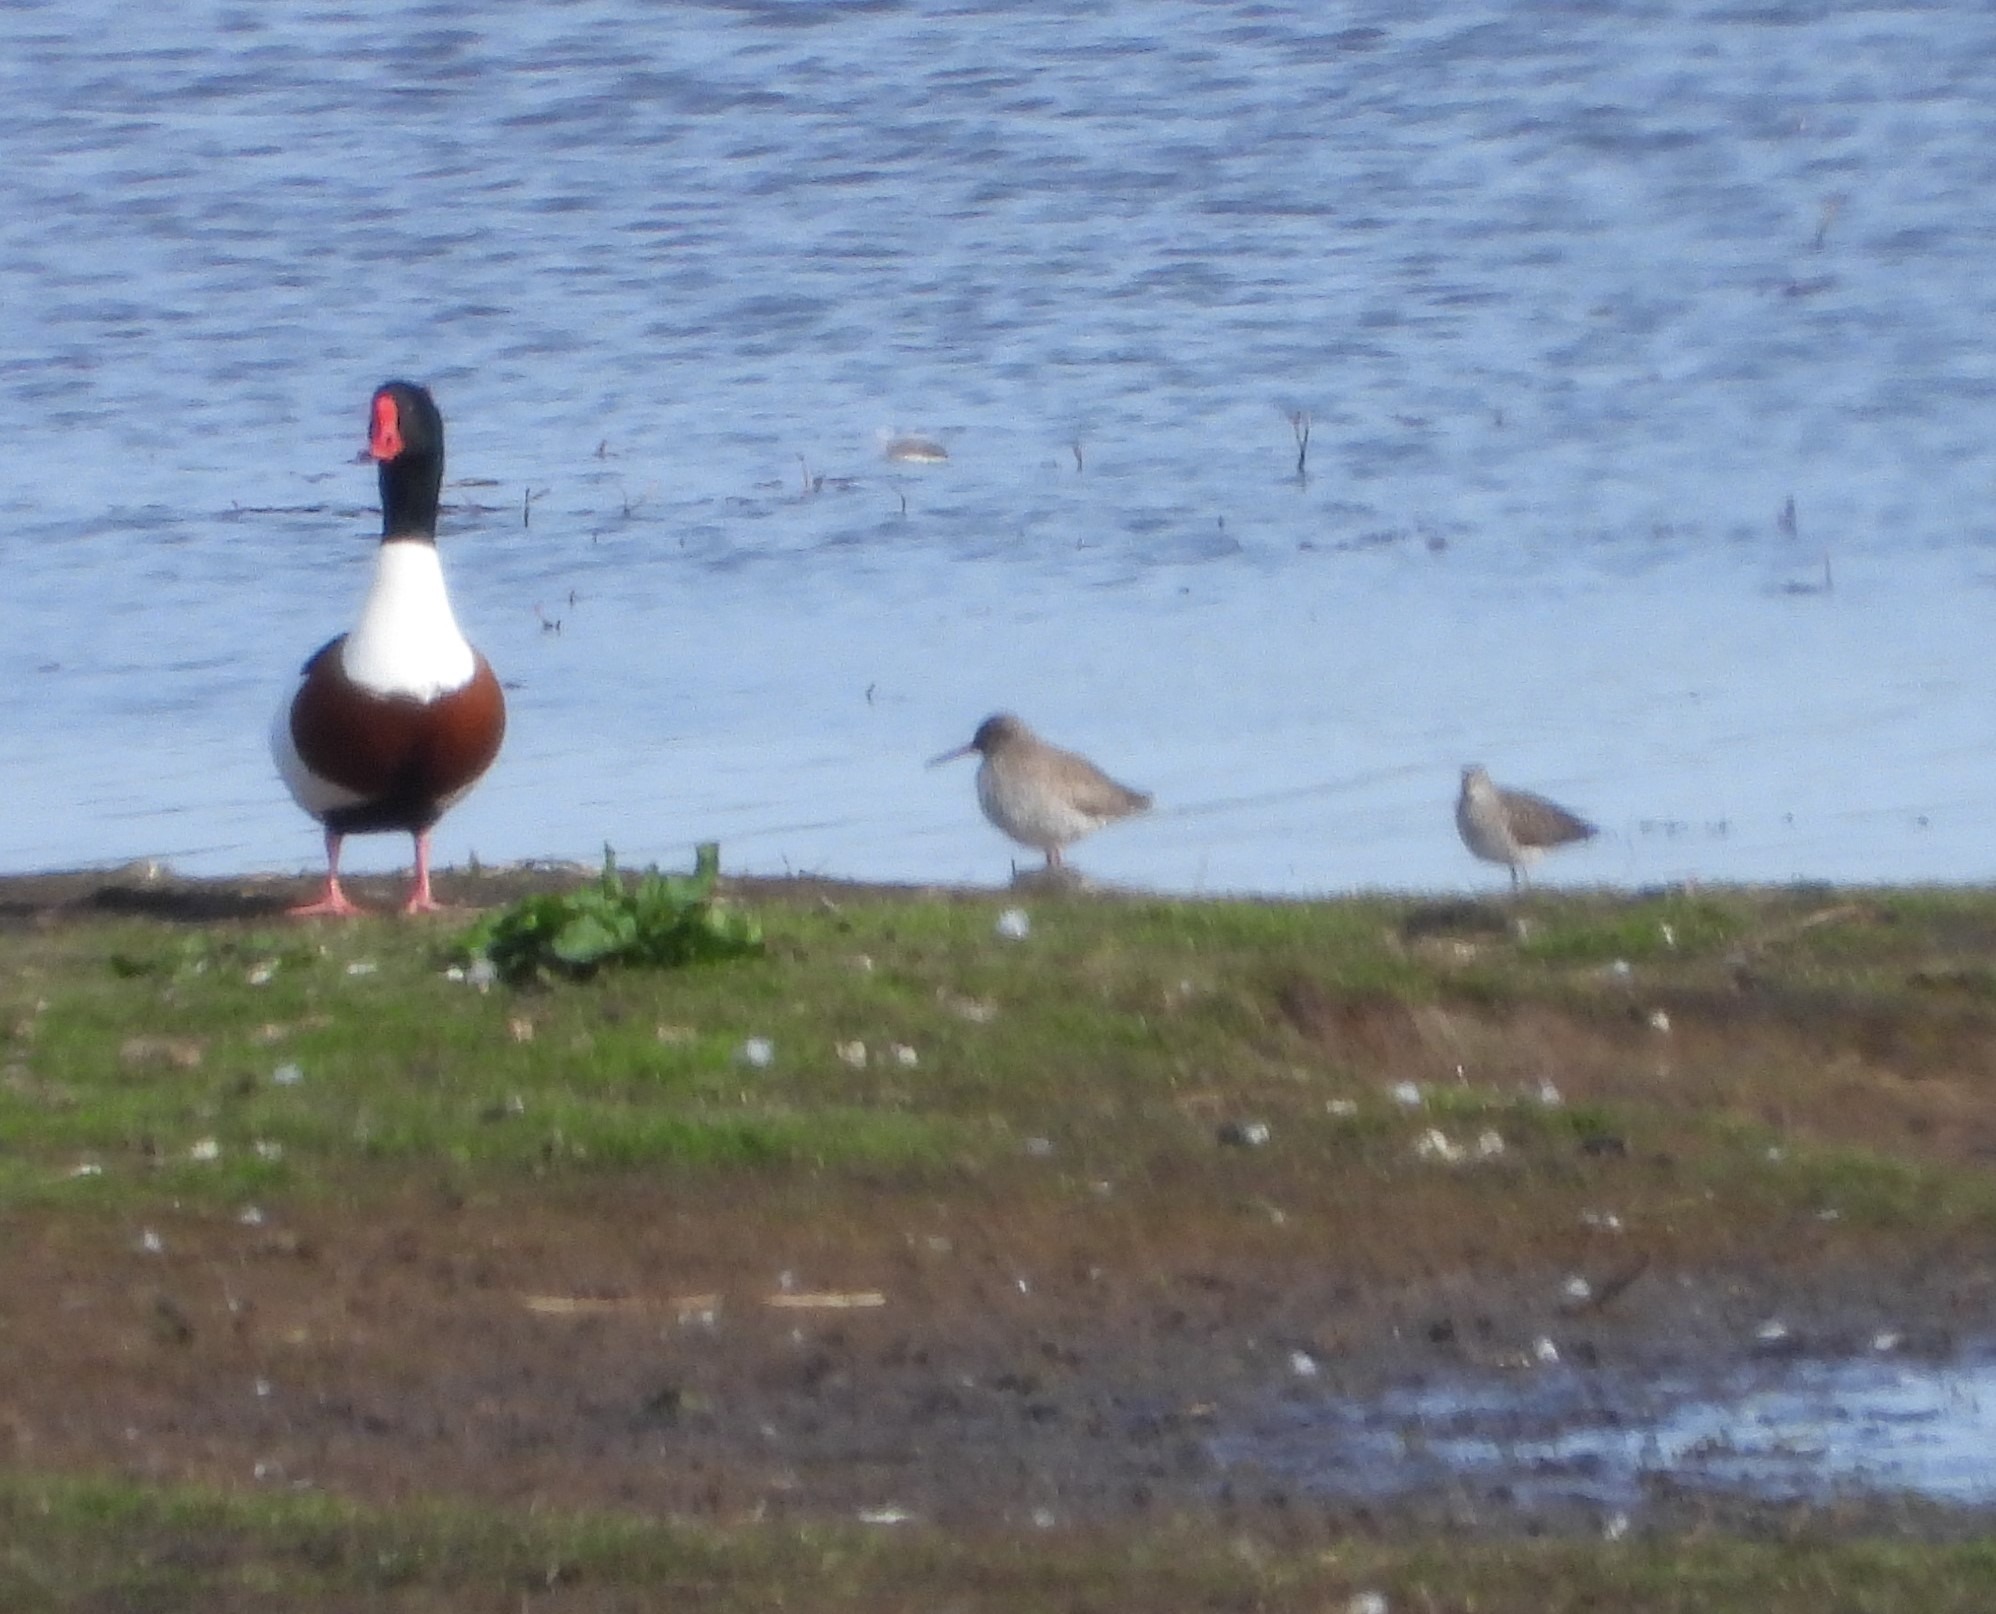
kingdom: Animalia
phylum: Chordata
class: Aves
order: Charadriiformes
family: Scolopacidae
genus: Tringa
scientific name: Tringa totanus
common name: Rødben
